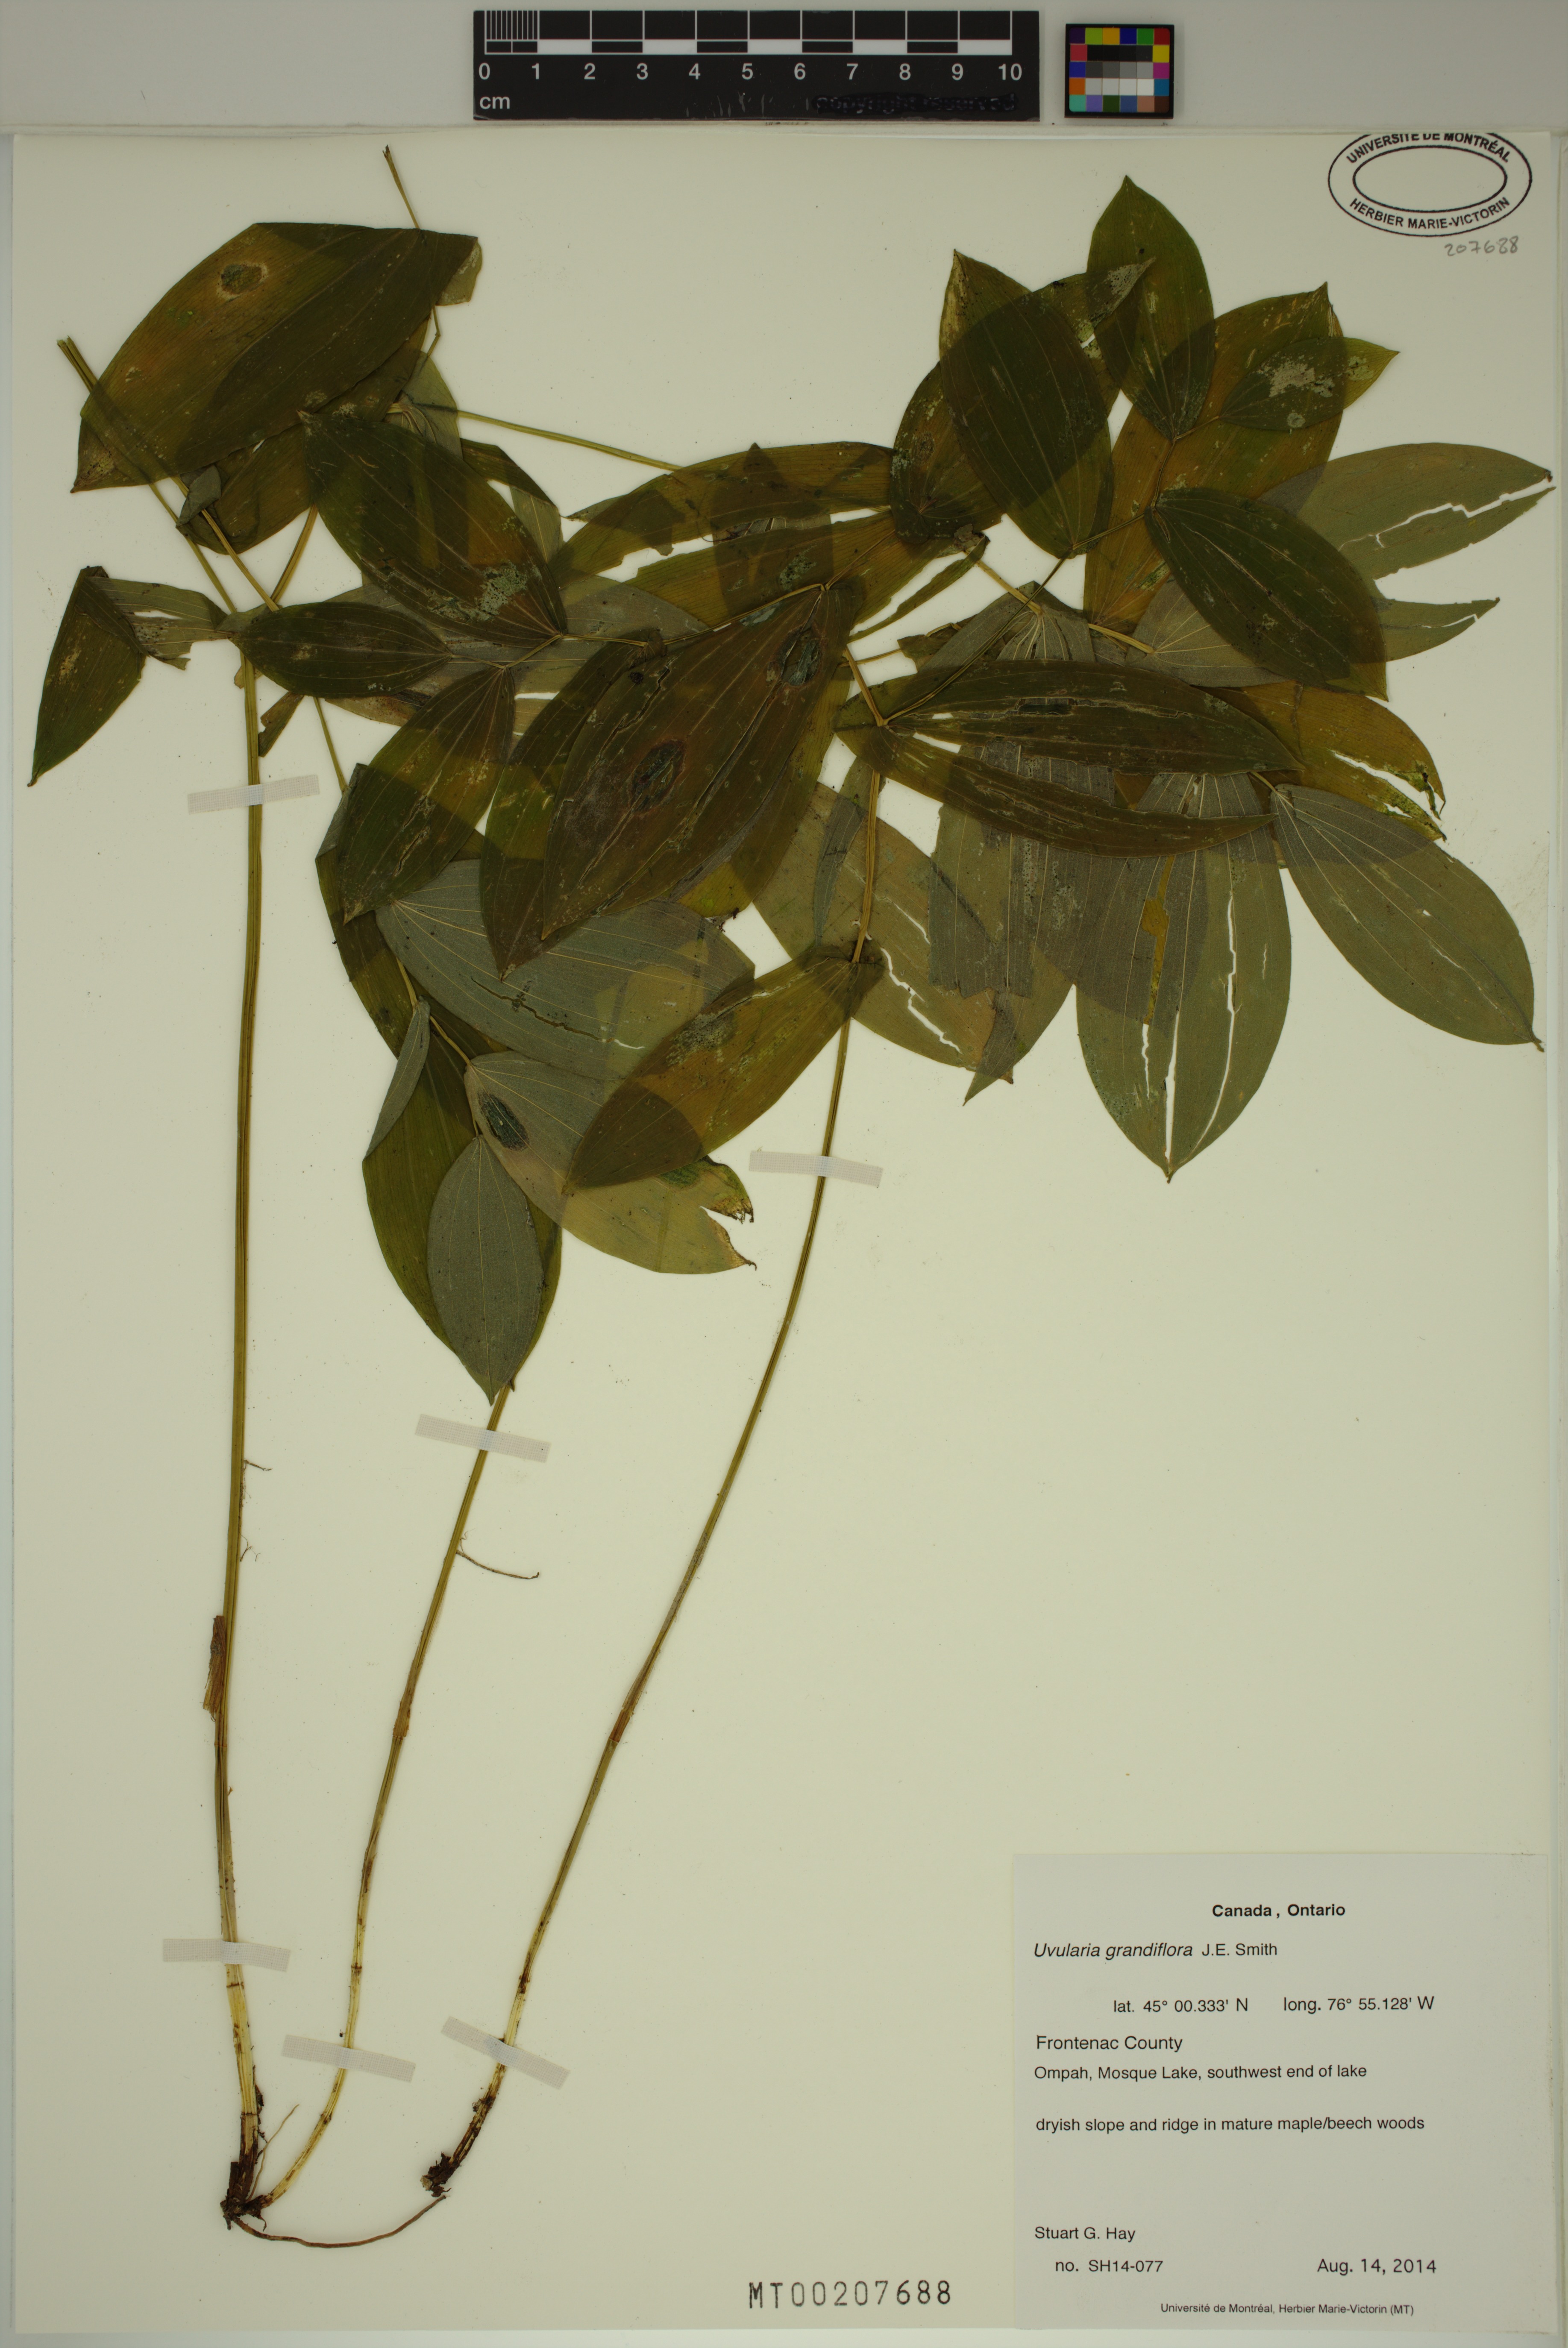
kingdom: Plantae
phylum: Tracheophyta
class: Liliopsida
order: Liliales
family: Colchicaceae
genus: Uvularia
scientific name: Uvularia grandiflora
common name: Bellwort
